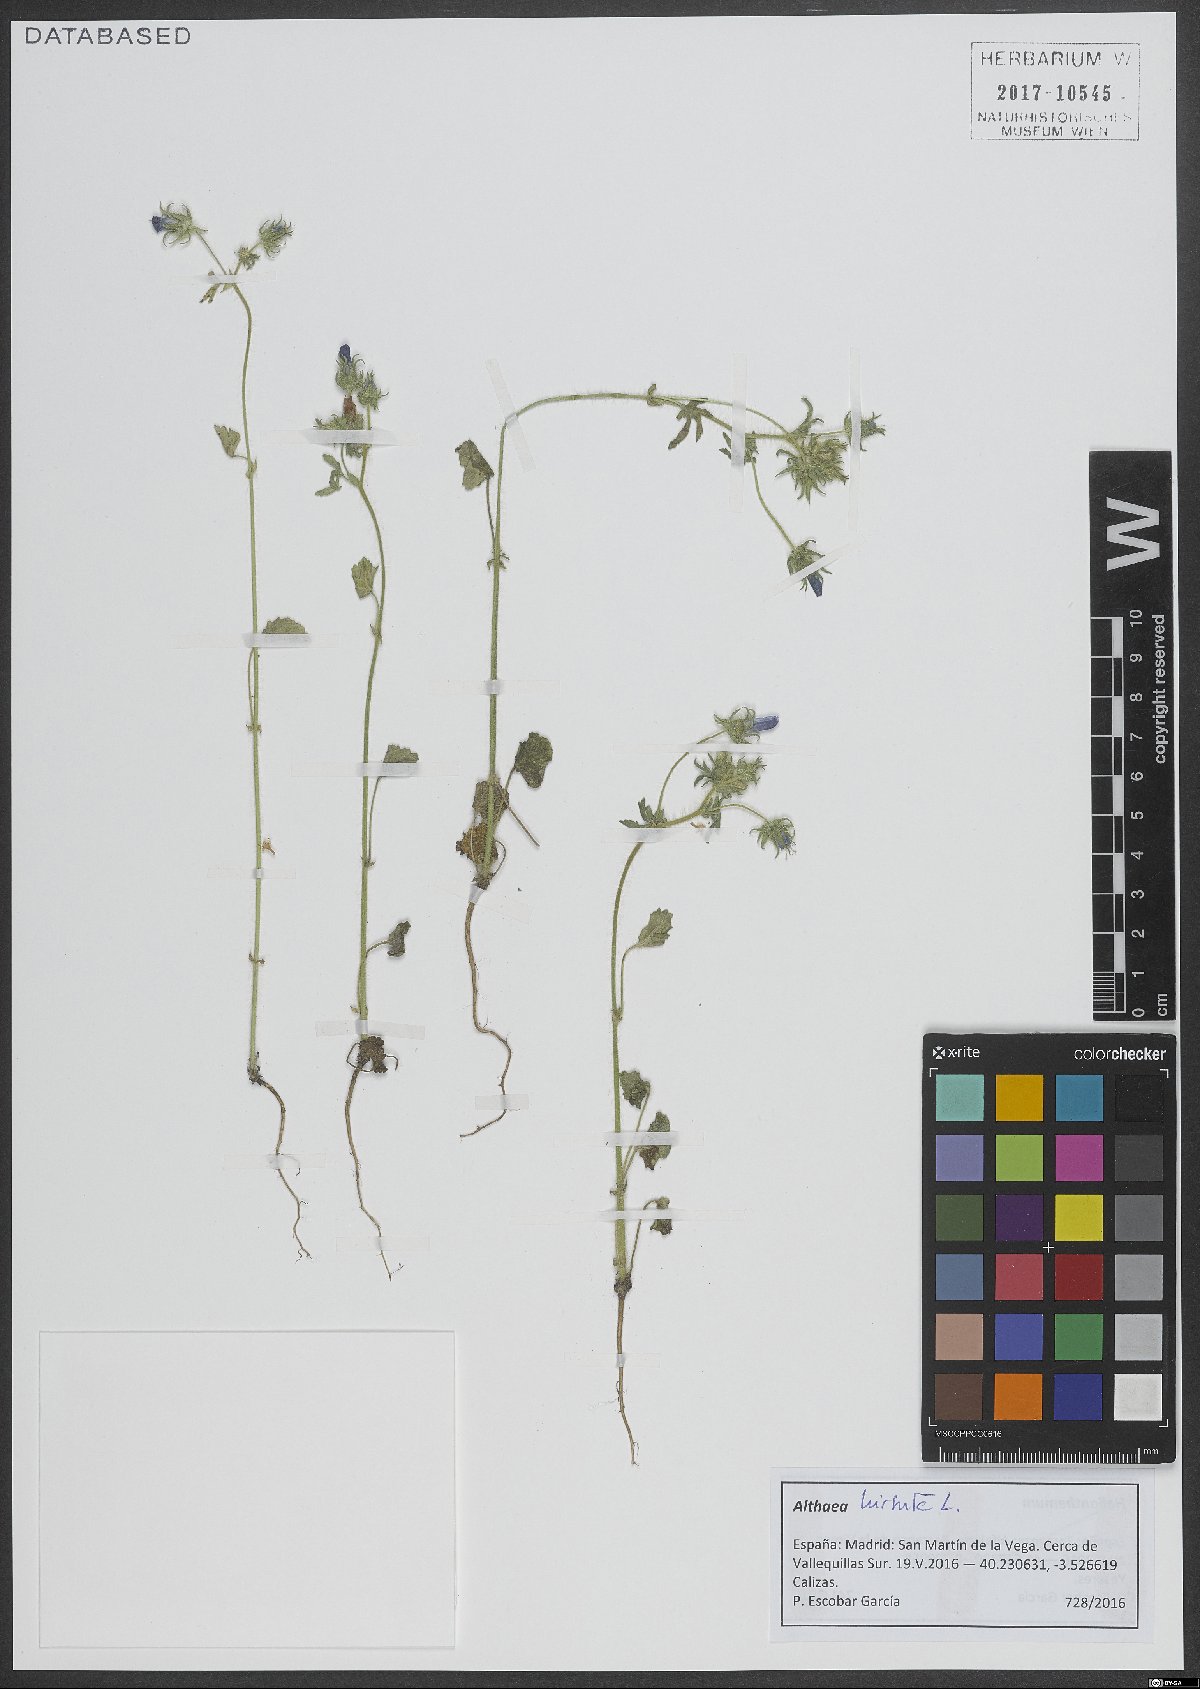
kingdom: Plantae
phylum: Tracheophyta
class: Magnoliopsida
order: Malvales
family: Malvaceae
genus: Althaea
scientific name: Althaea hirsuta
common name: Rough marsh-mallow
